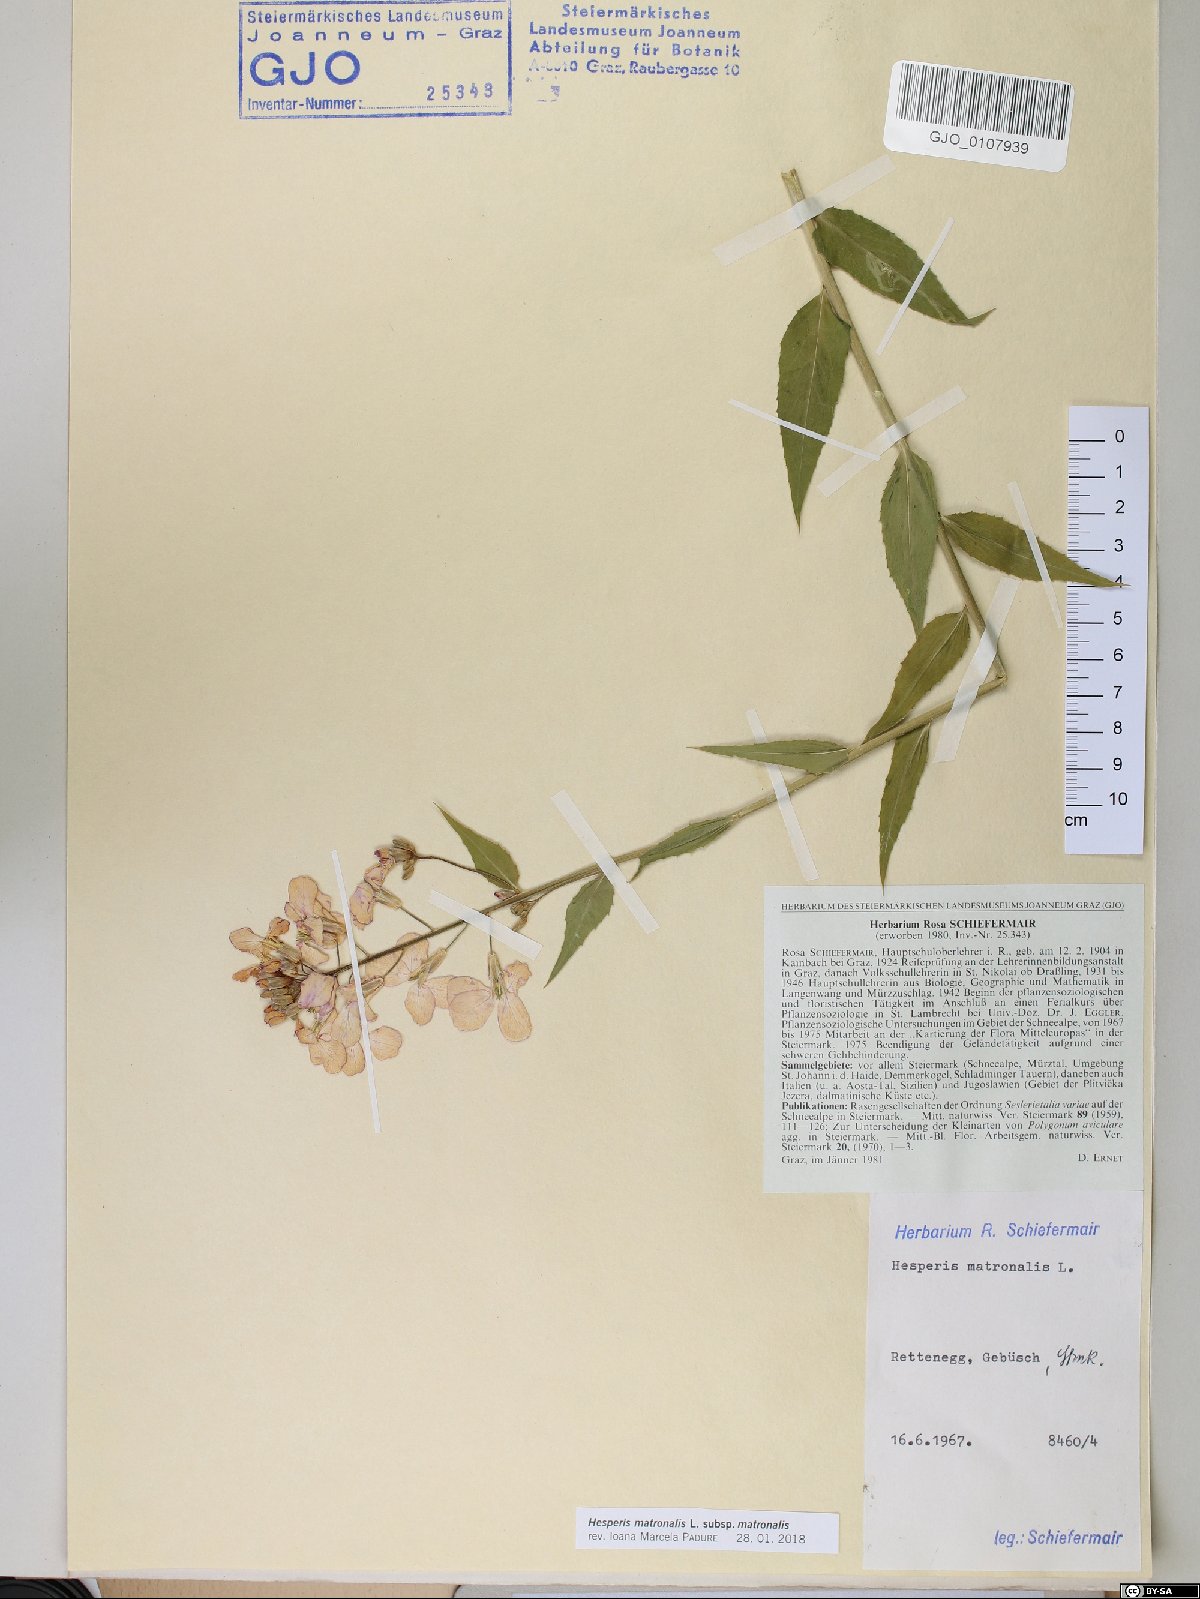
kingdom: Plantae
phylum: Tracheophyta
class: Magnoliopsida
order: Brassicales
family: Brassicaceae
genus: Hesperis
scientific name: Hesperis matronalis
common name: Dame's-violet
